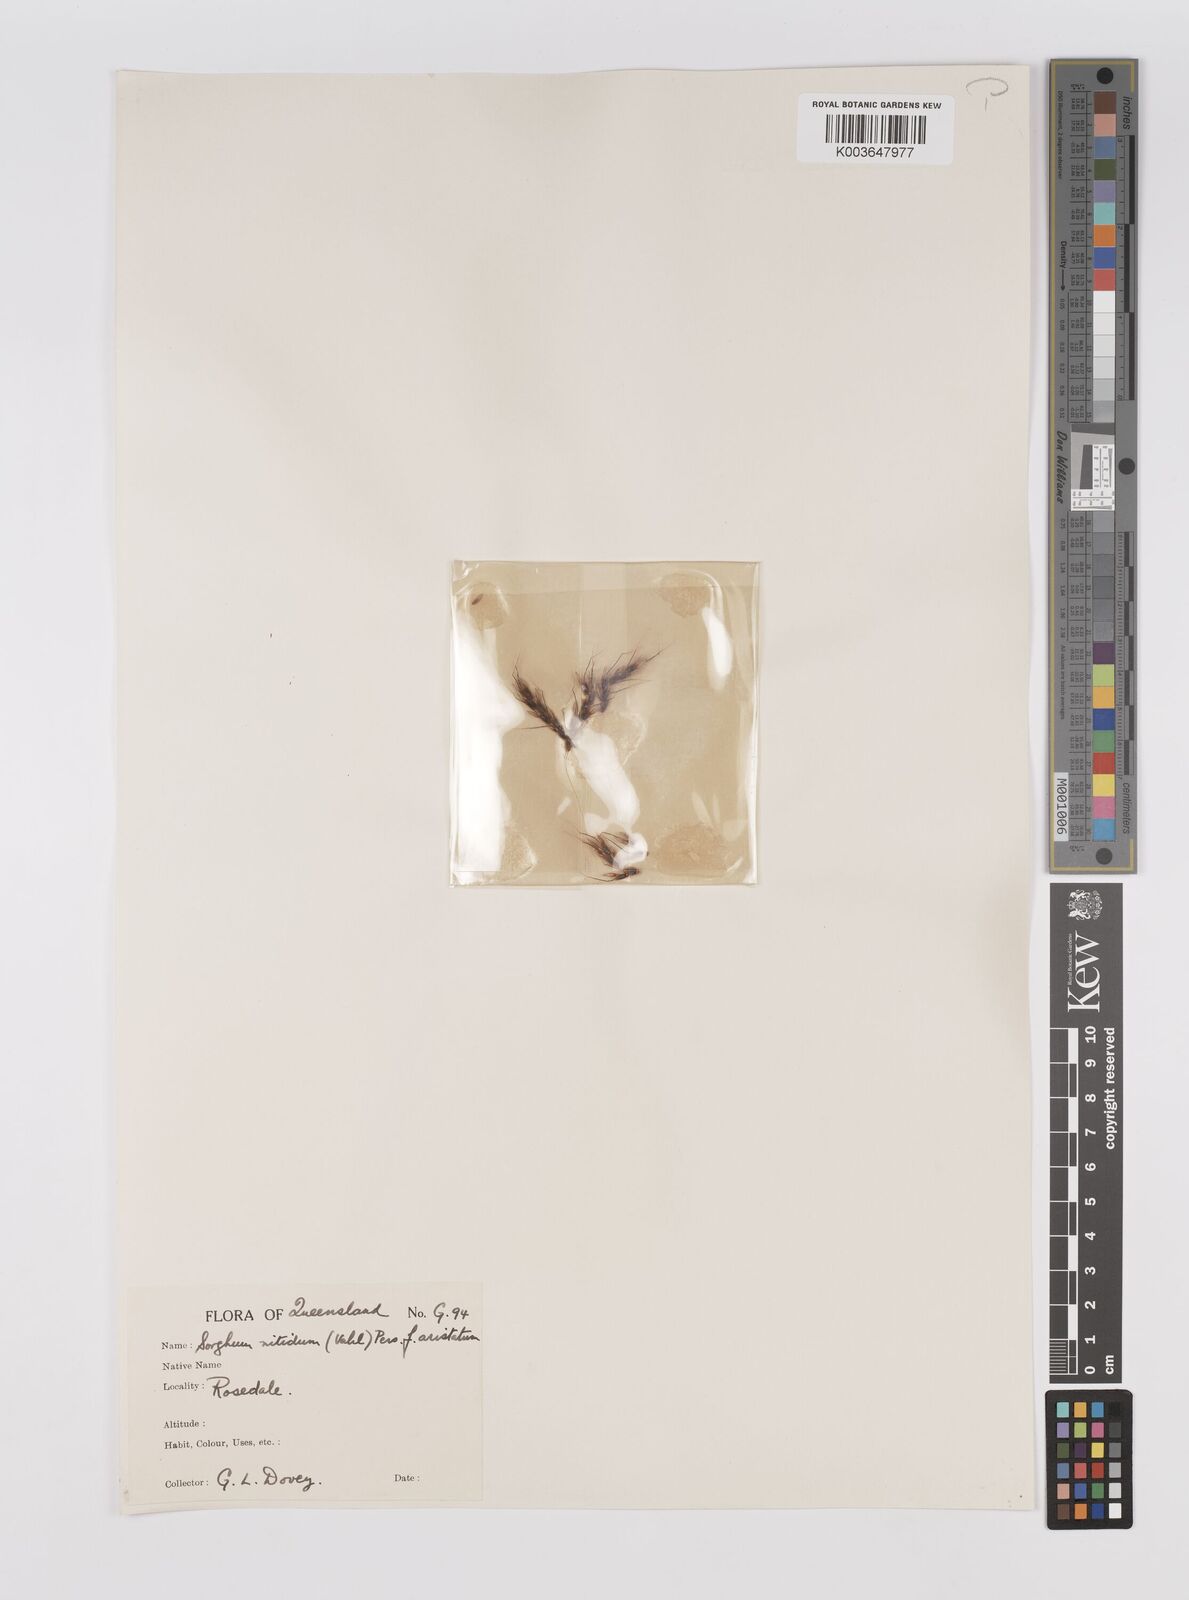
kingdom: Plantae
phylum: Tracheophyta
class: Liliopsida
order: Poales
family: Poaceae
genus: Sorghum
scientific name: Sorghum nitidum
